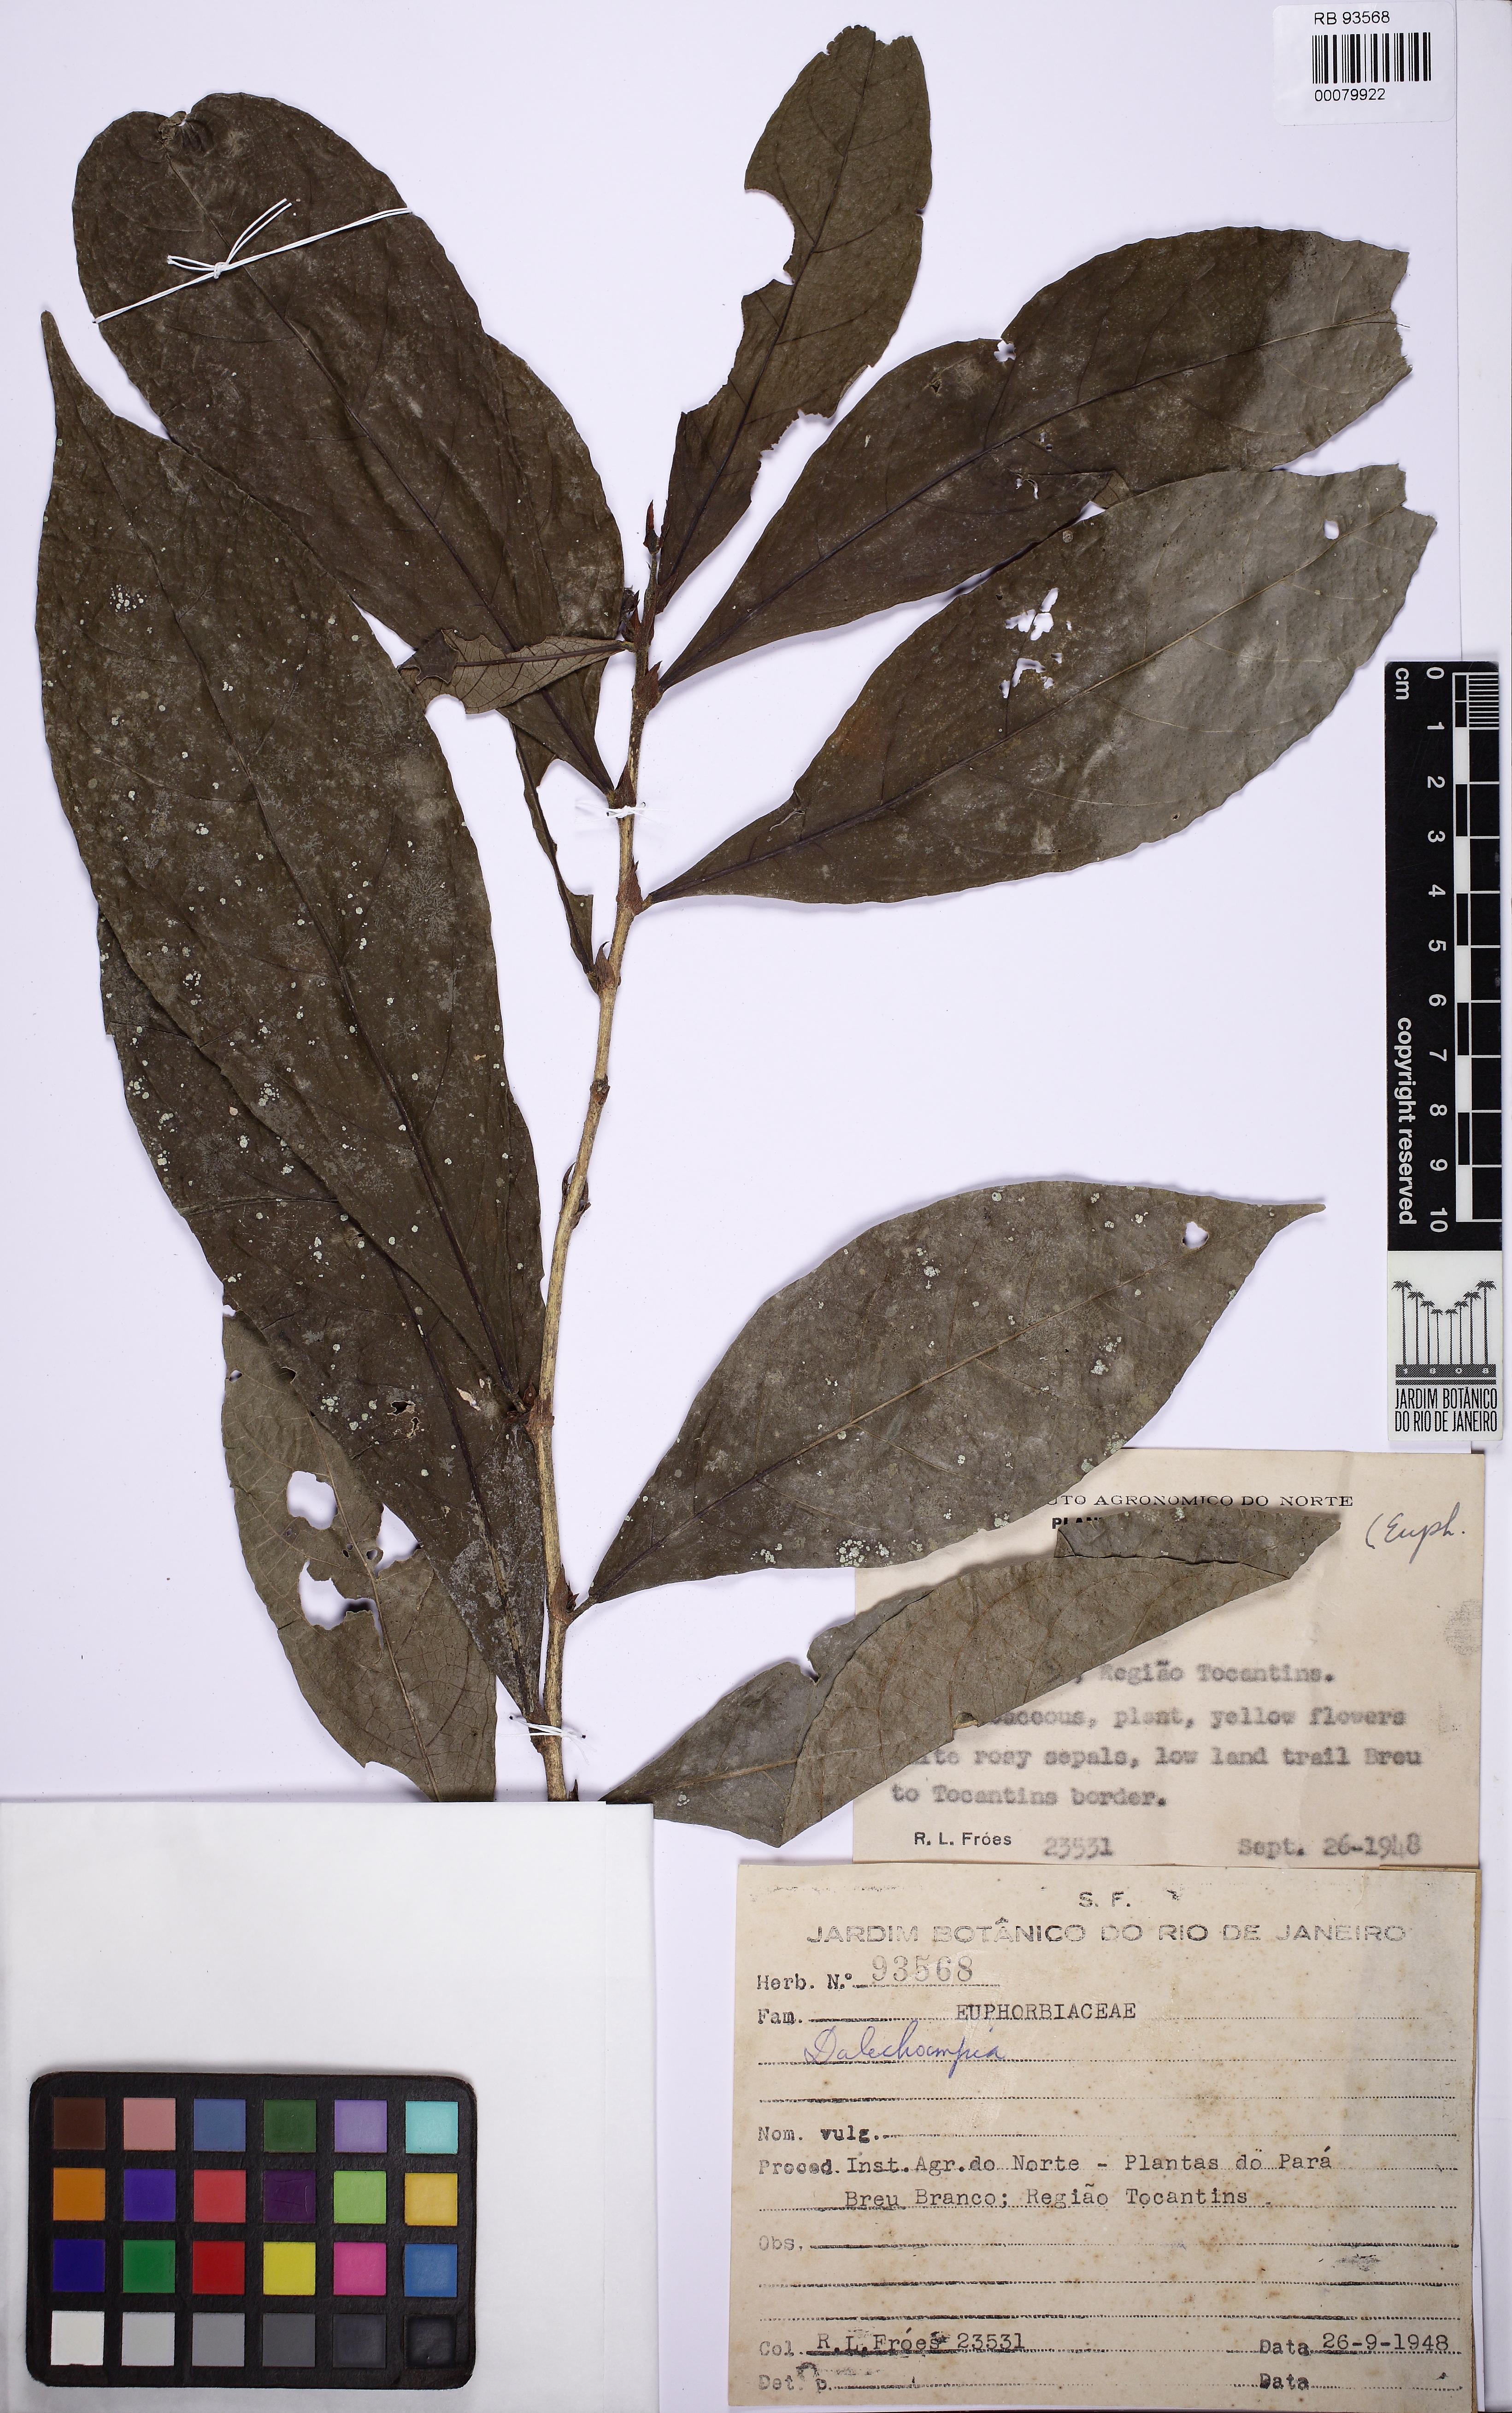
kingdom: Plantae
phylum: Tracheophyta
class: Magnoliopsida
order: Malpighiales
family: Euphorbiaceae
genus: Dalechampia
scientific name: Dalechampia magnoliifolia
